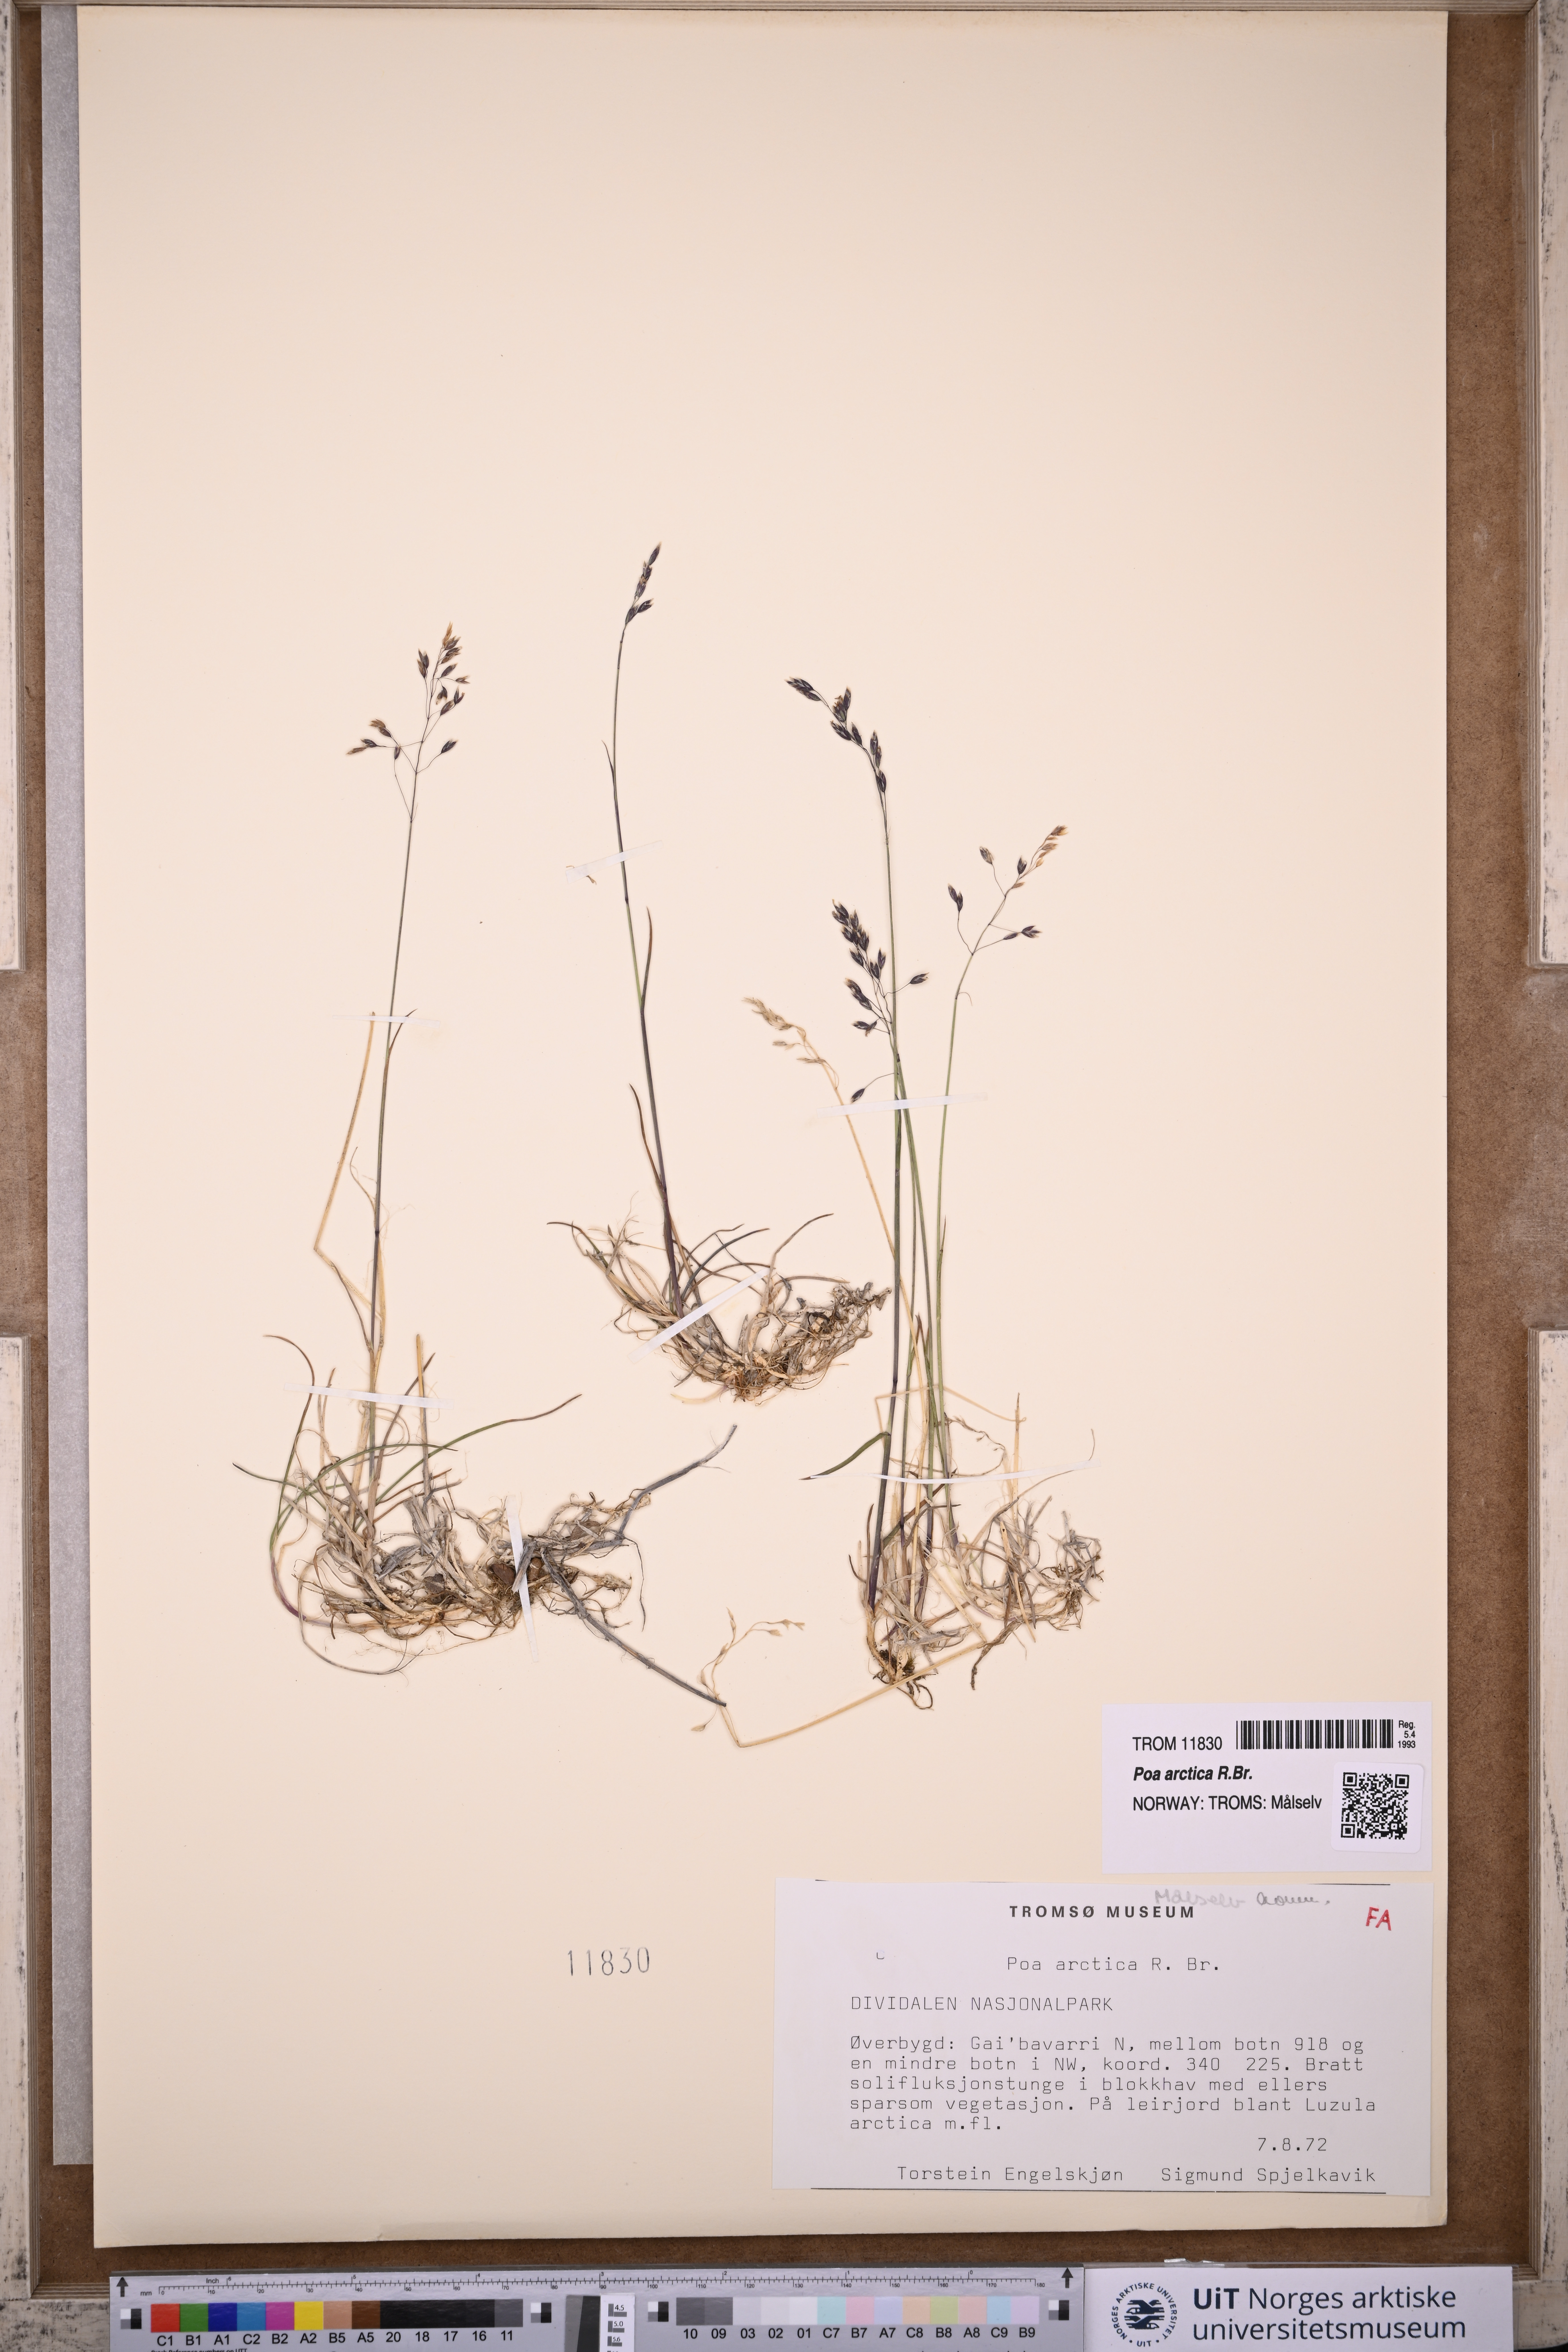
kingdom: Plantae
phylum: Tracheophyta
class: Liliopsida
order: Poales
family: Poaceae
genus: Poa
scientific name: Poa arctica
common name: Arctic bluegrass
